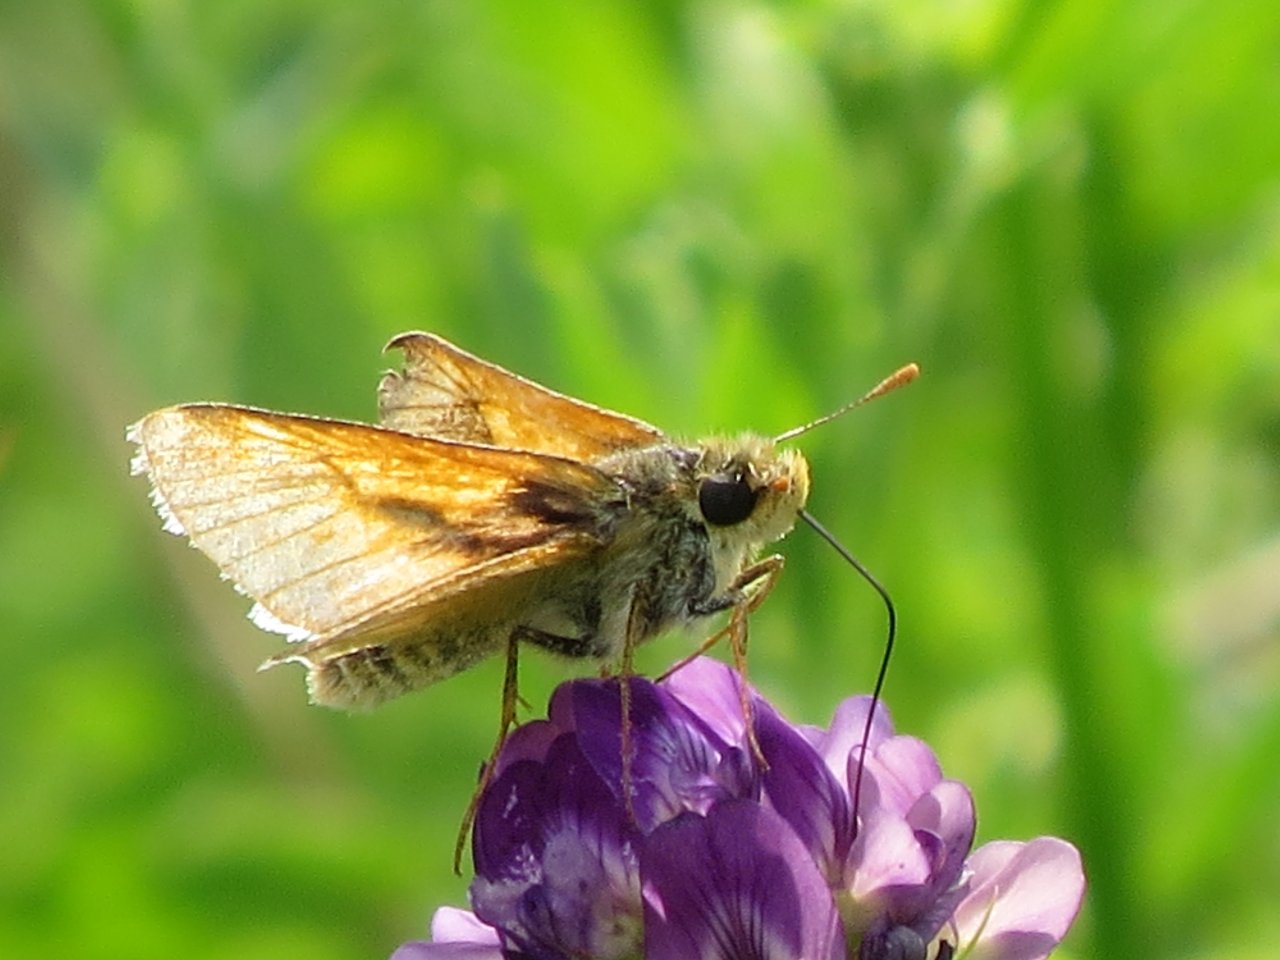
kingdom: Animalia
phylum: Arthropoda
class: Insecta
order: Lepidoptera
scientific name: Lepidoptera
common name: Butterflies
